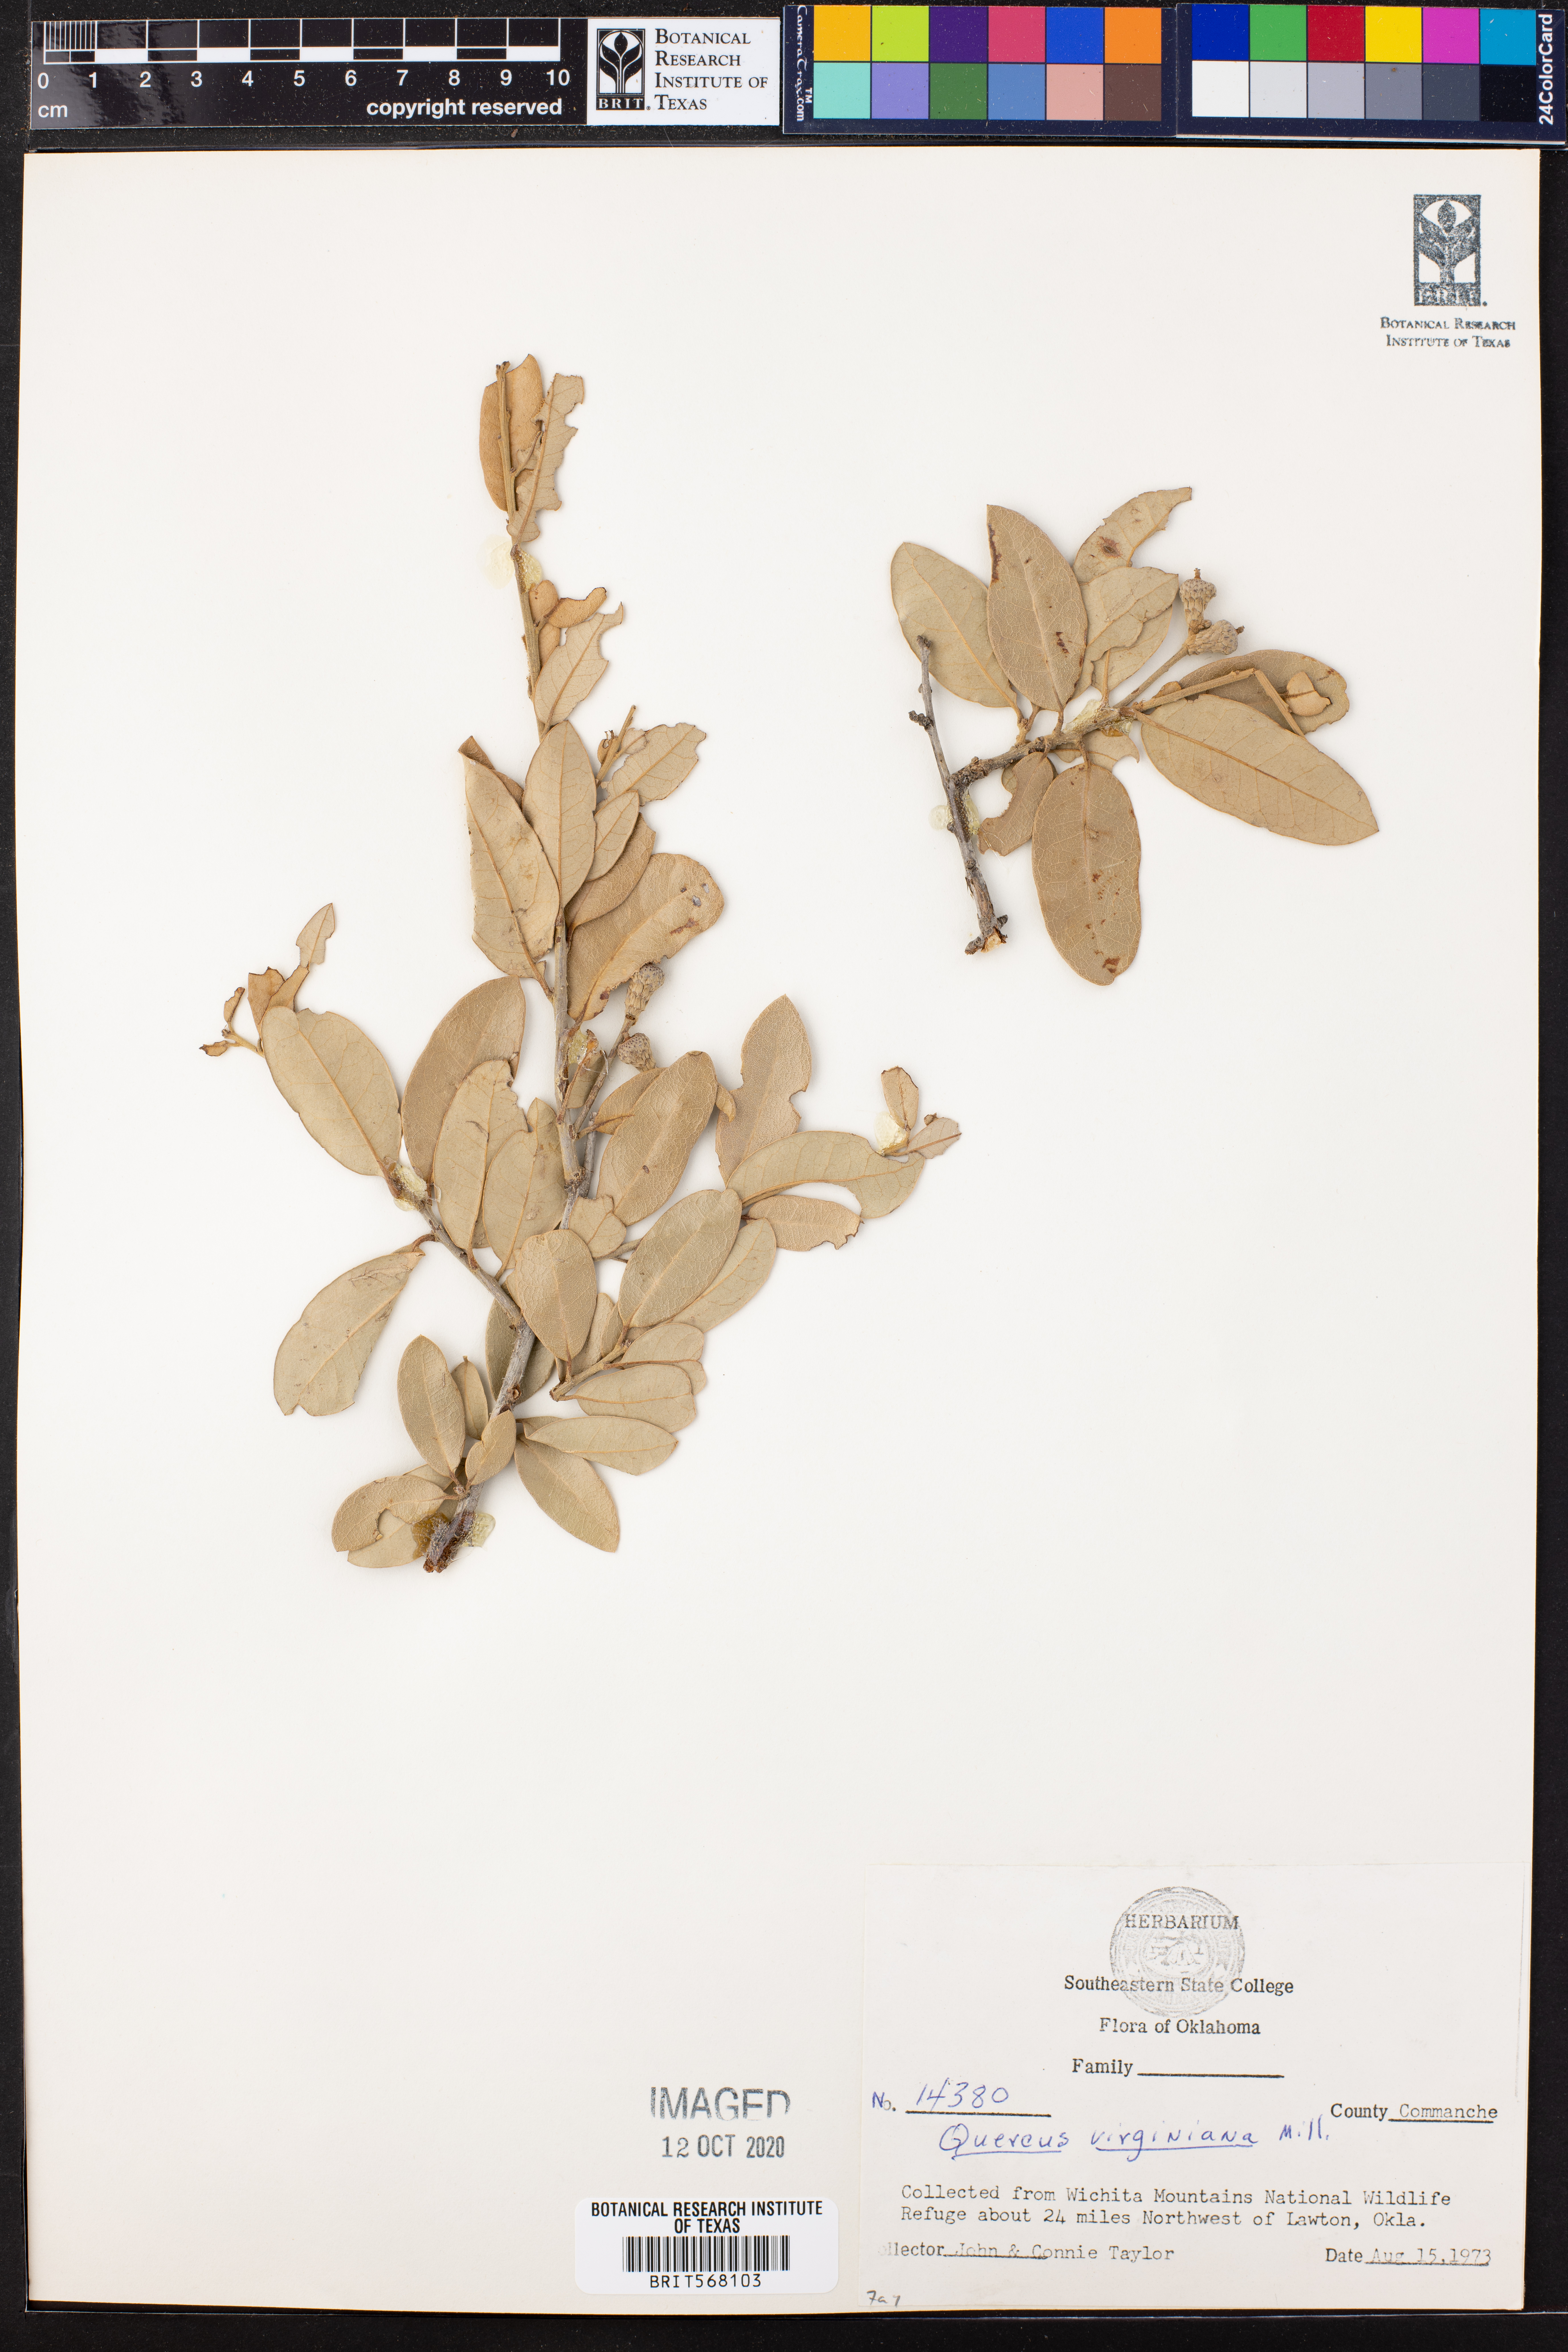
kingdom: Plantae
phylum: Tracheophyta
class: Magnoliopsida
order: Fagales
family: Fagaceae
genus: Quercus
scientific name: Quercus virginiana
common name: Southern live oak
